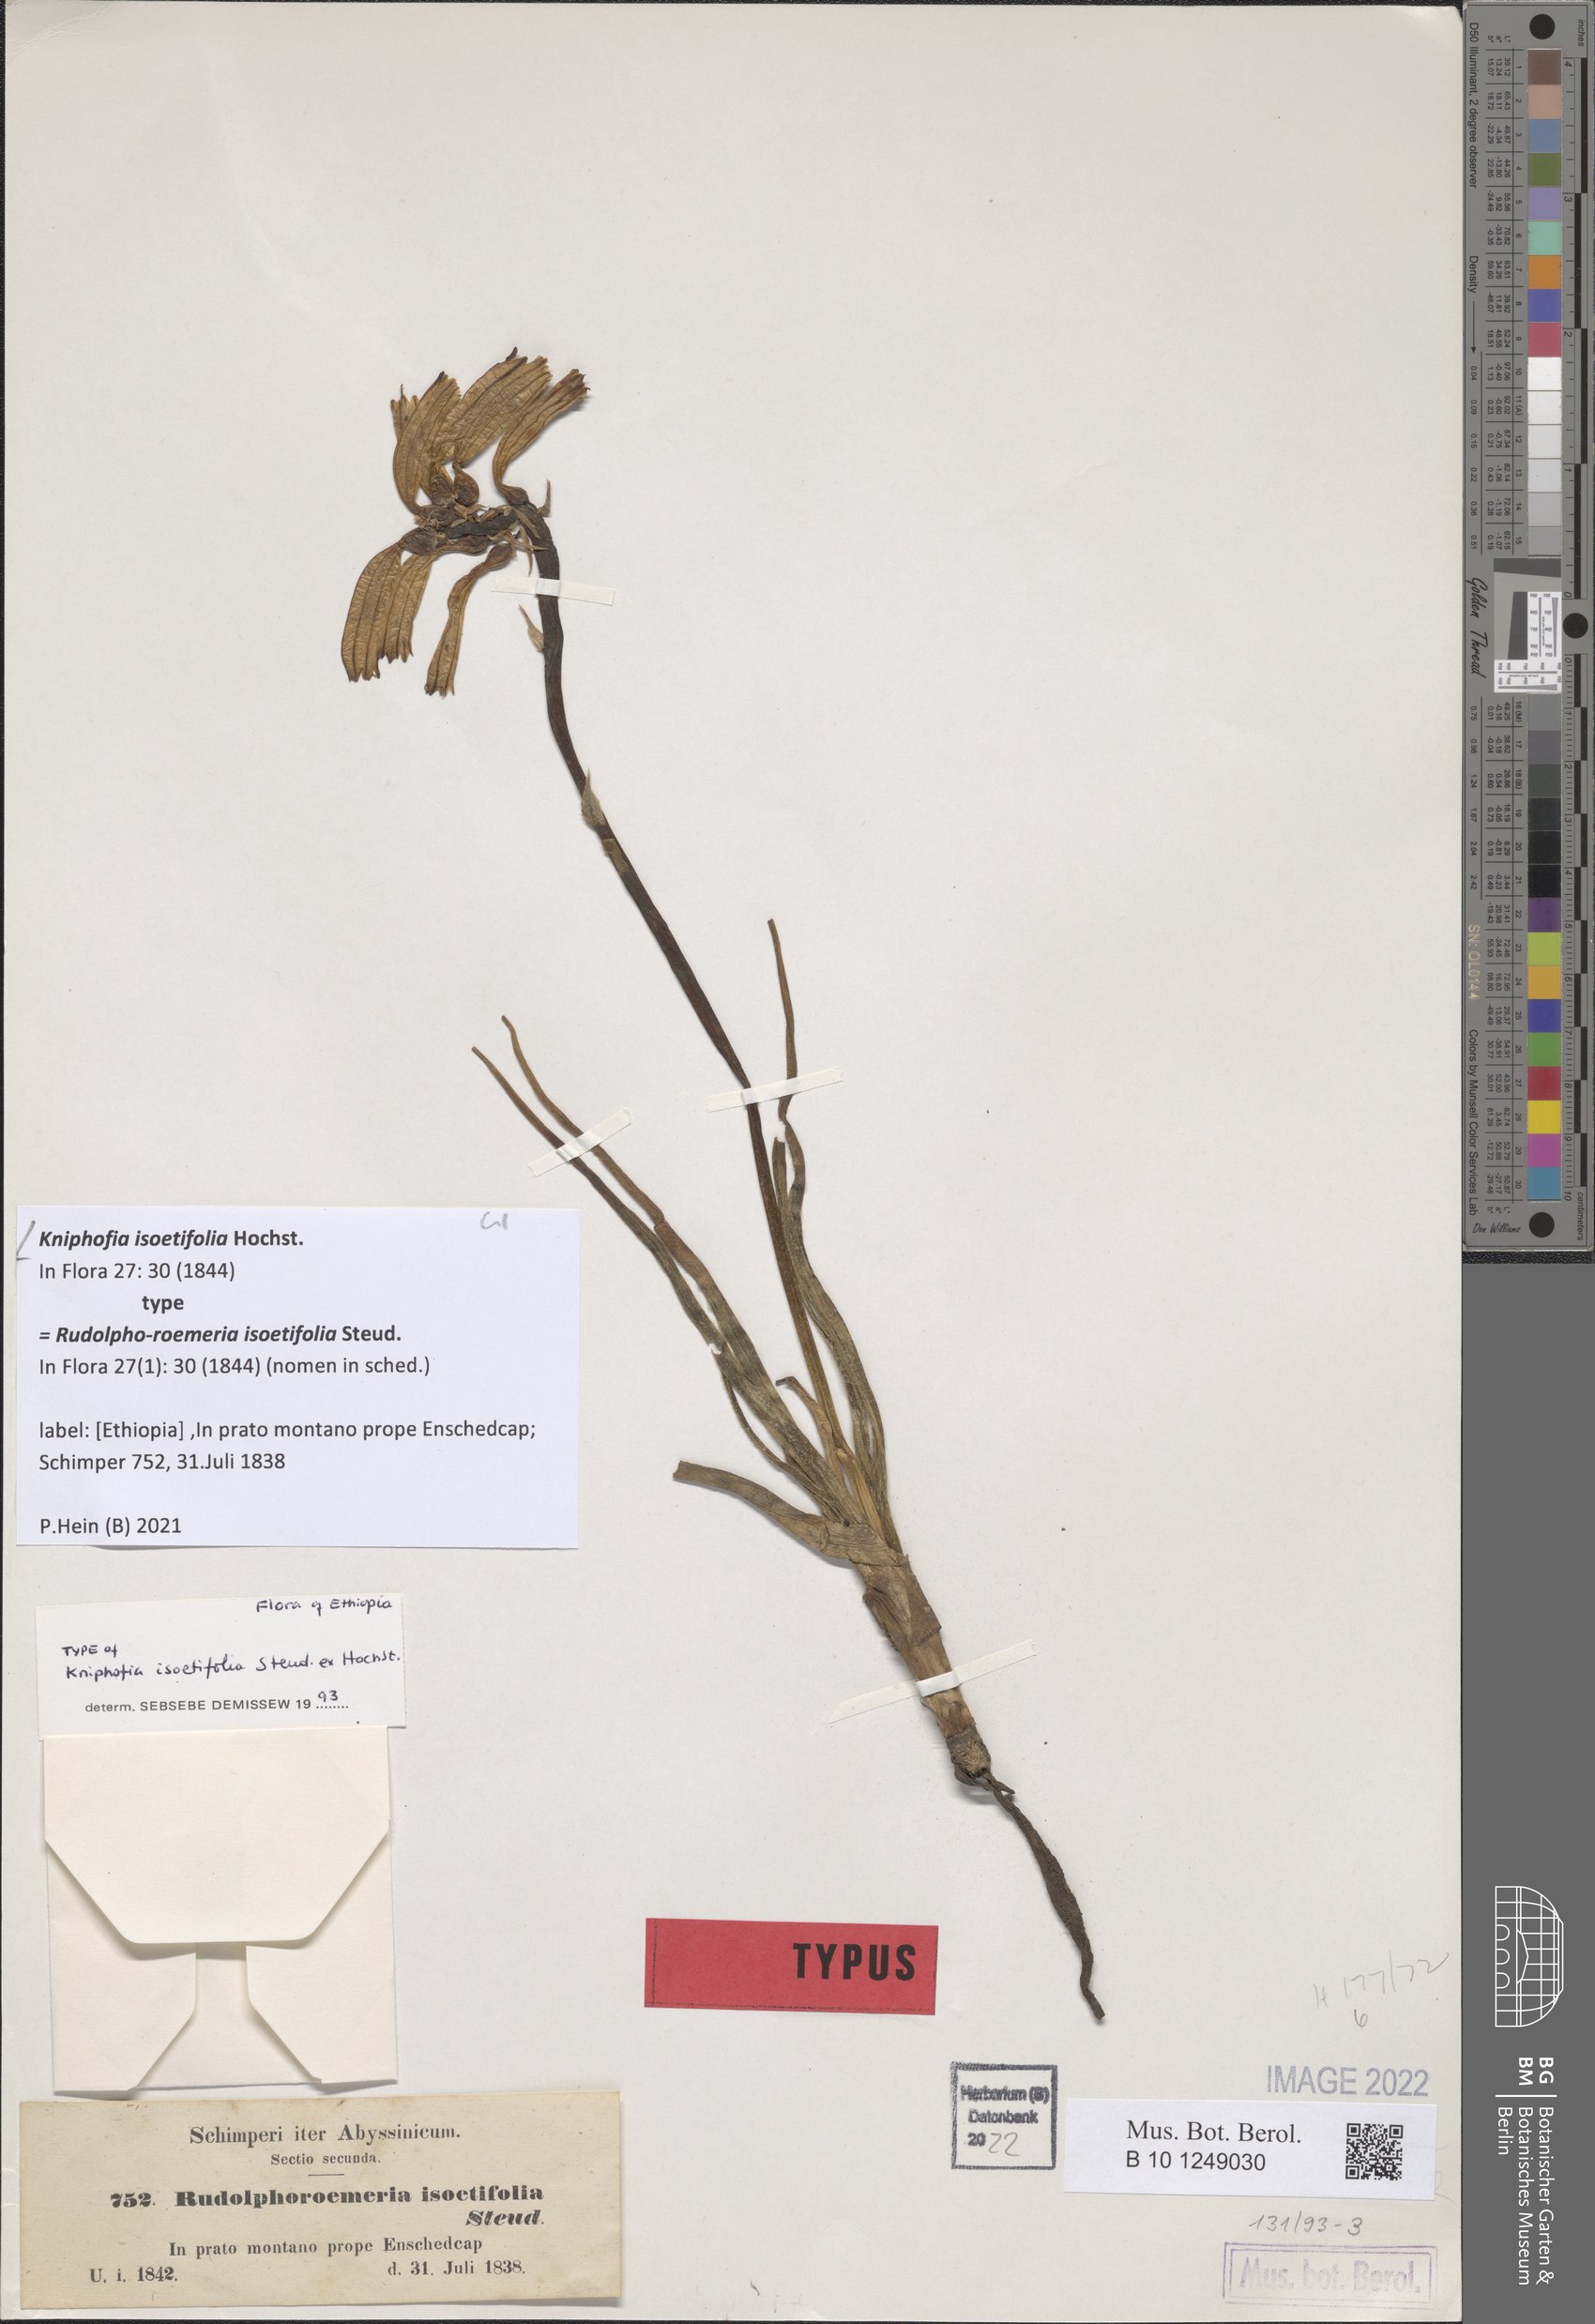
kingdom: Plantae
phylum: Tracheophyta
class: Liliopsida
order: Asparagales
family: Asphodelaceae
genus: Kniphofia
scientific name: Kniphofia isoetifolia
